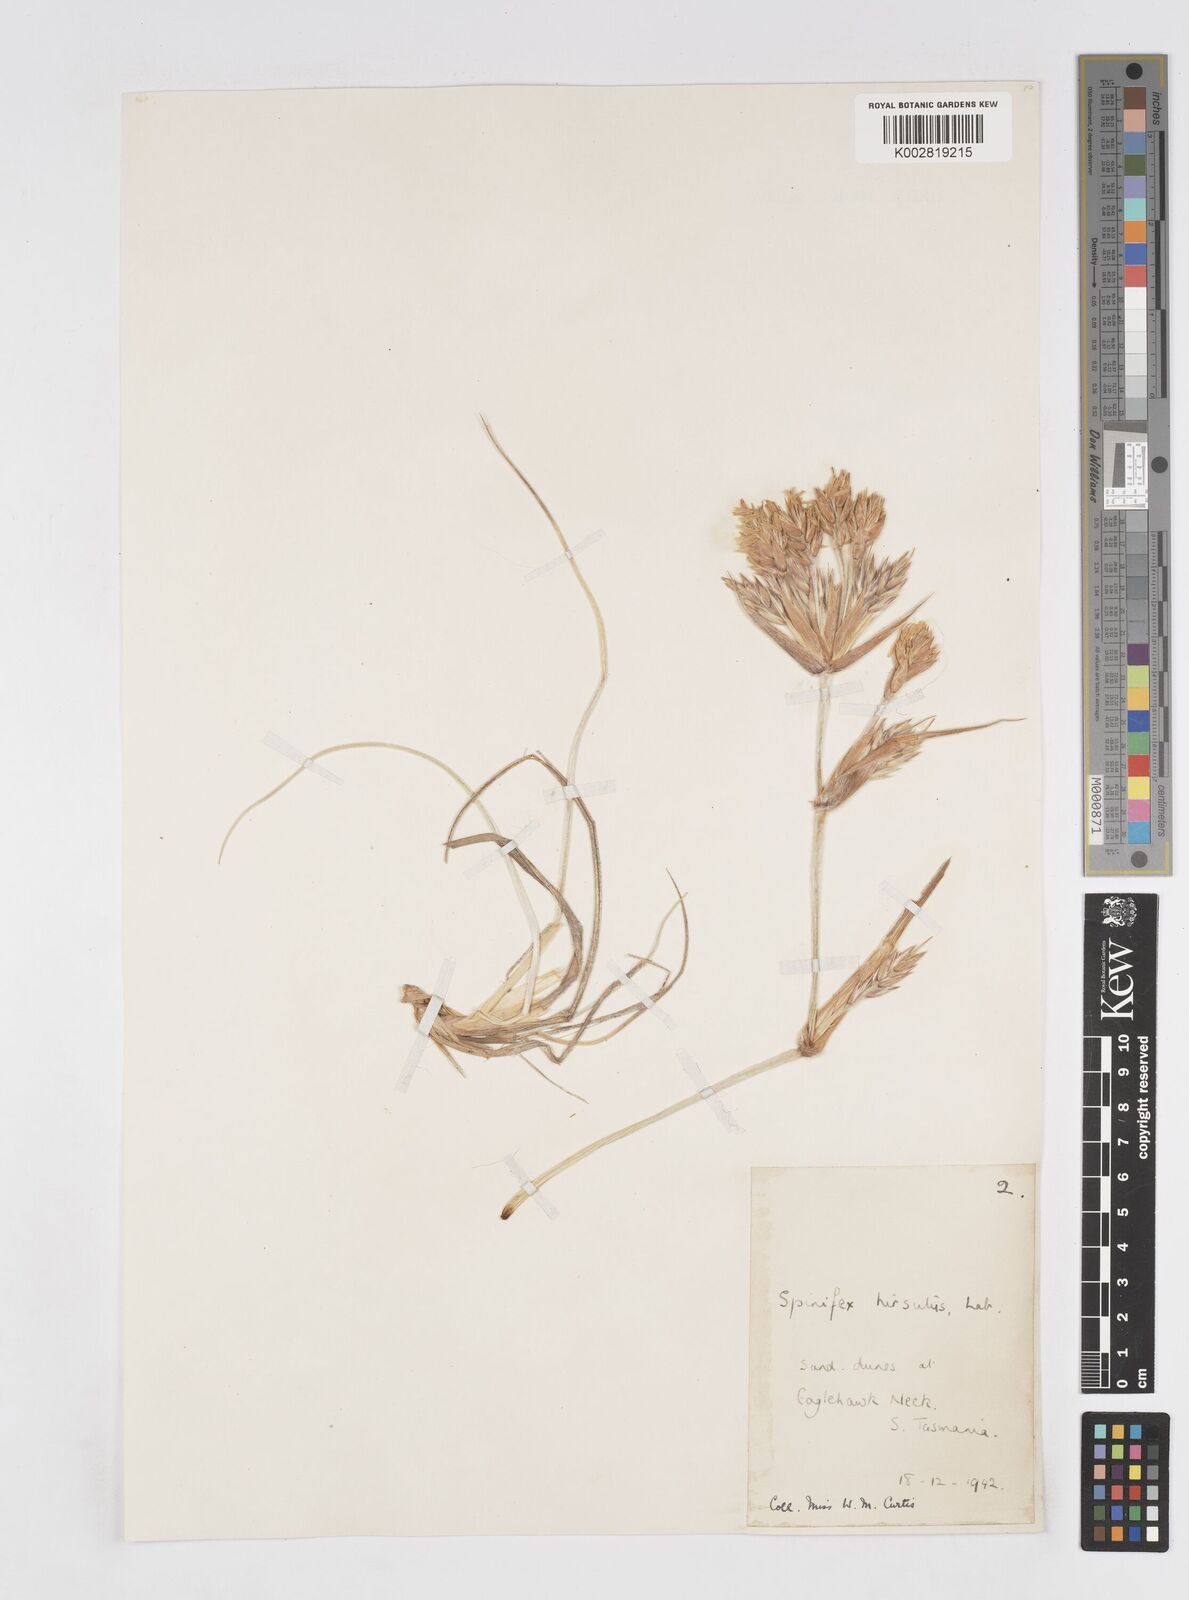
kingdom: Plantae
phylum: Tracheophyta
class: Liliopsida
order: Poales
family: Poaceae
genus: Spinifex
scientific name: Spinifex hirsutus
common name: Hairy spinifex
